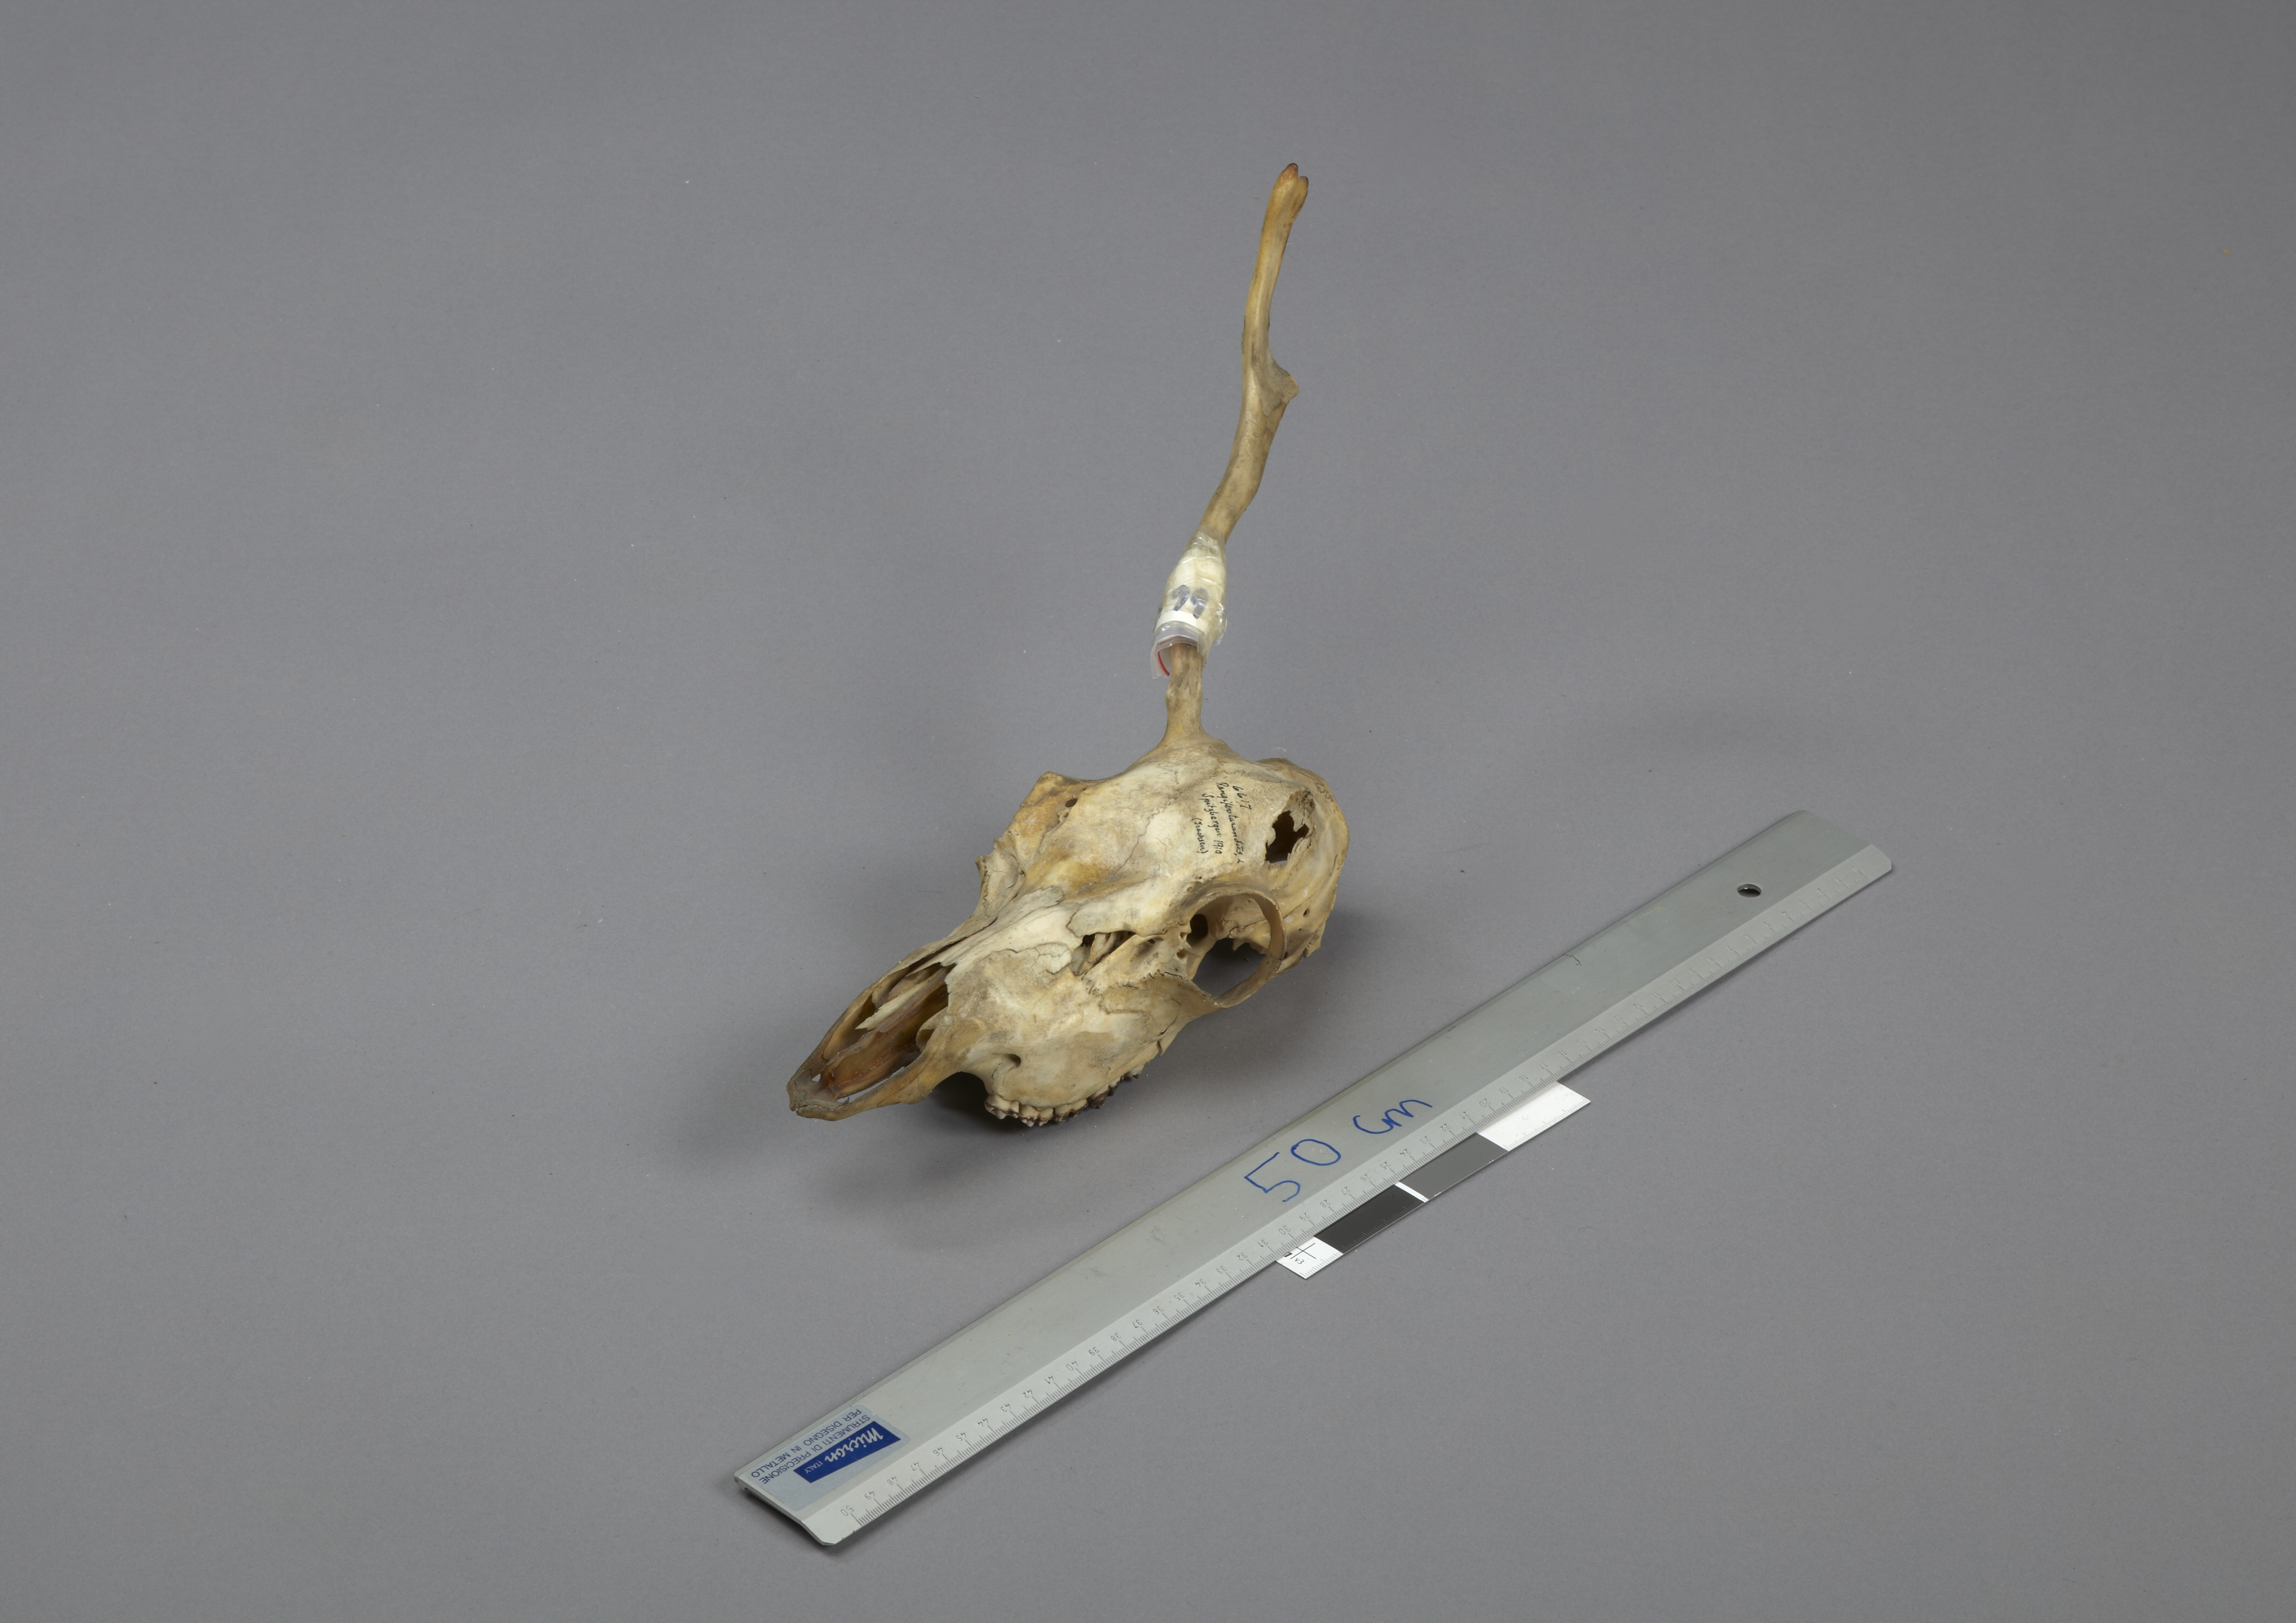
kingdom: Animalia
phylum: Chordata
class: Mammalia
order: Artiodactyla
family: Cervidae
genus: Rangifer
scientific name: Rangifer tarandus
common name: Reindeer
